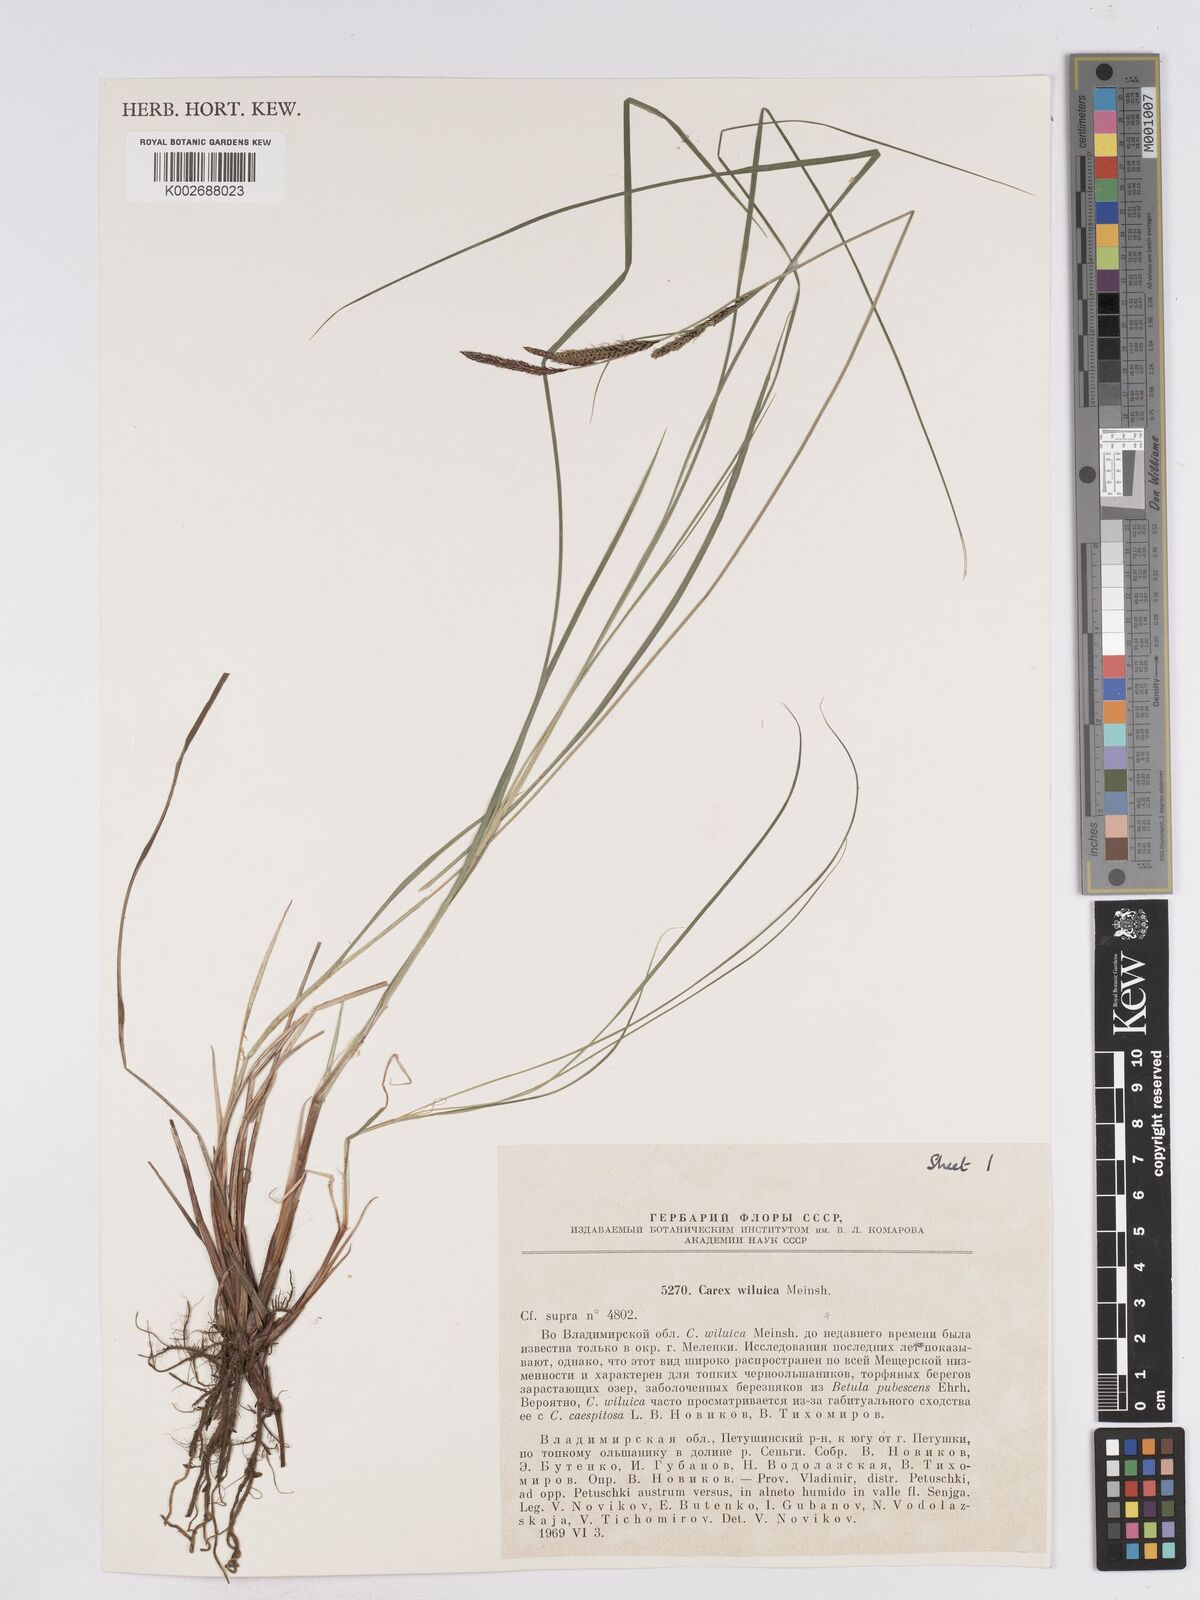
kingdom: Plantae
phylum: Tracheophyta
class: Liliopsida
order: Poales
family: Cyperaceae
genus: Carex
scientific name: Carex nigra
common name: Common sedge
